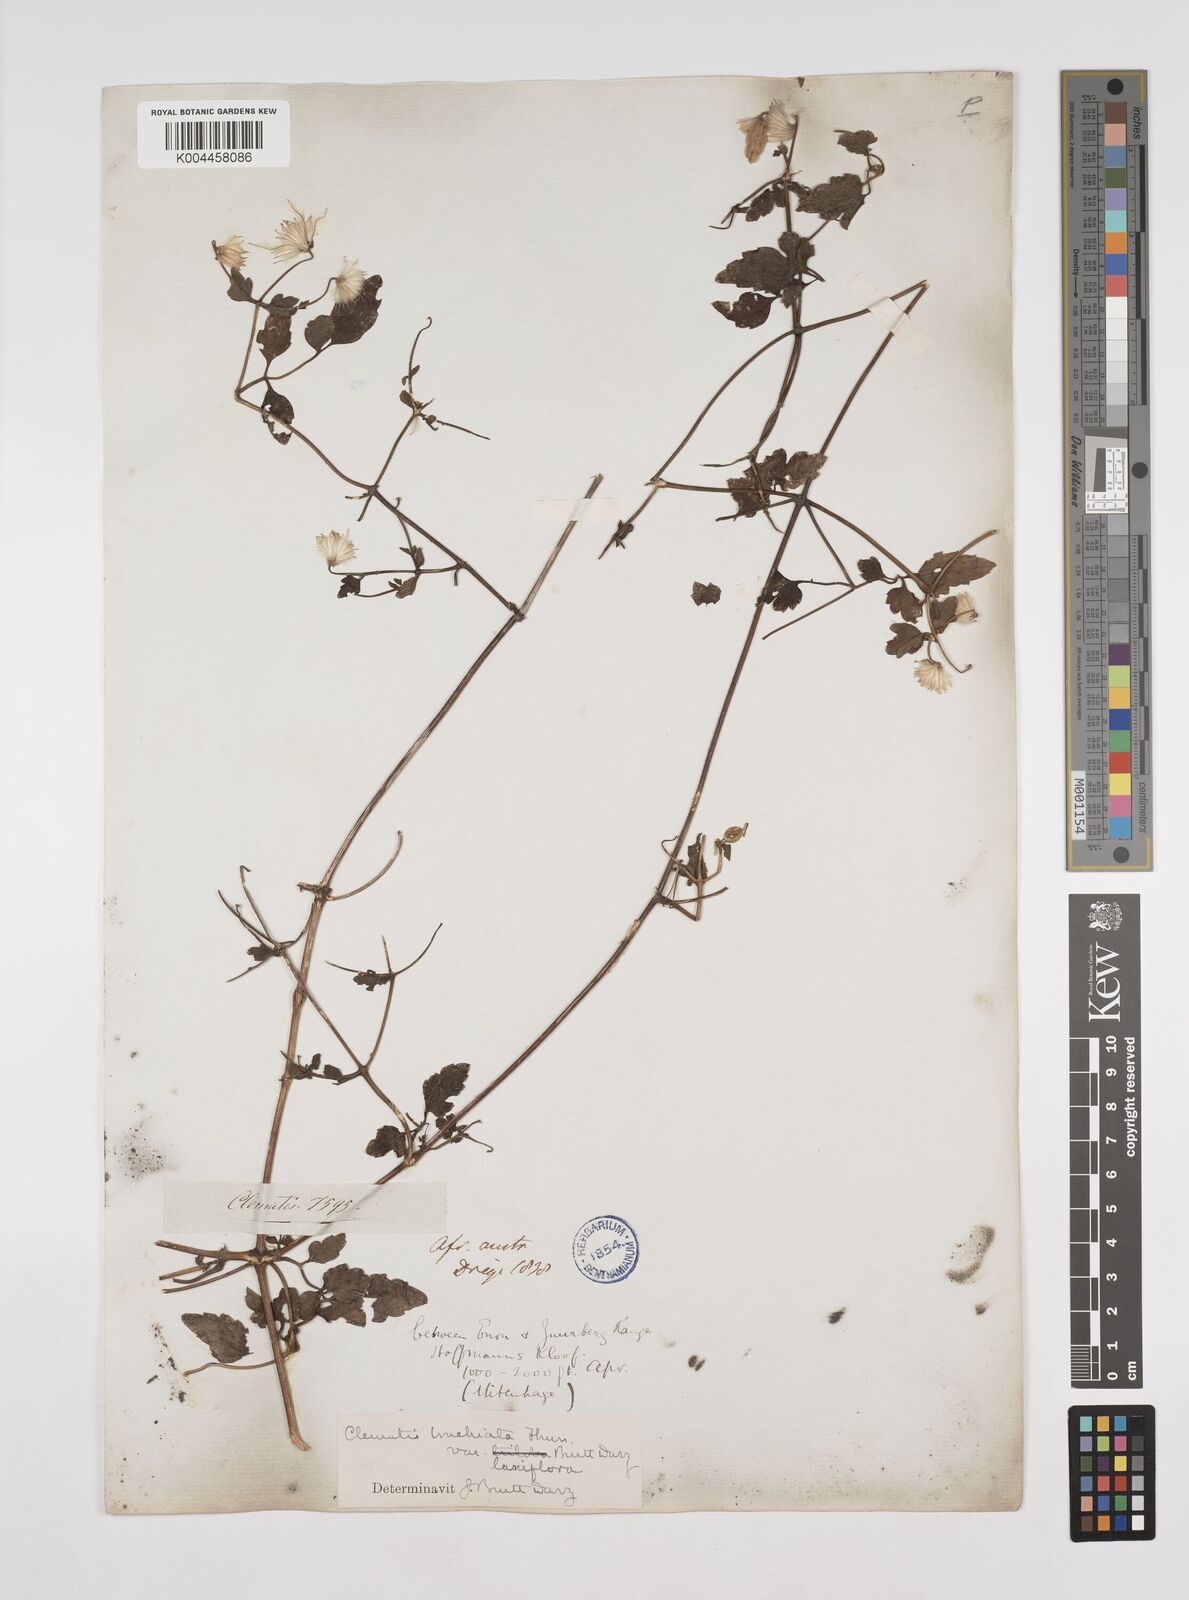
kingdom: Plantae
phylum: Tracheophyta
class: Magnoliopsida
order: Ranunculales
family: Ranunculaceae
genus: Clematis
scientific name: Clematis brachiata
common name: Traveler's-joy
